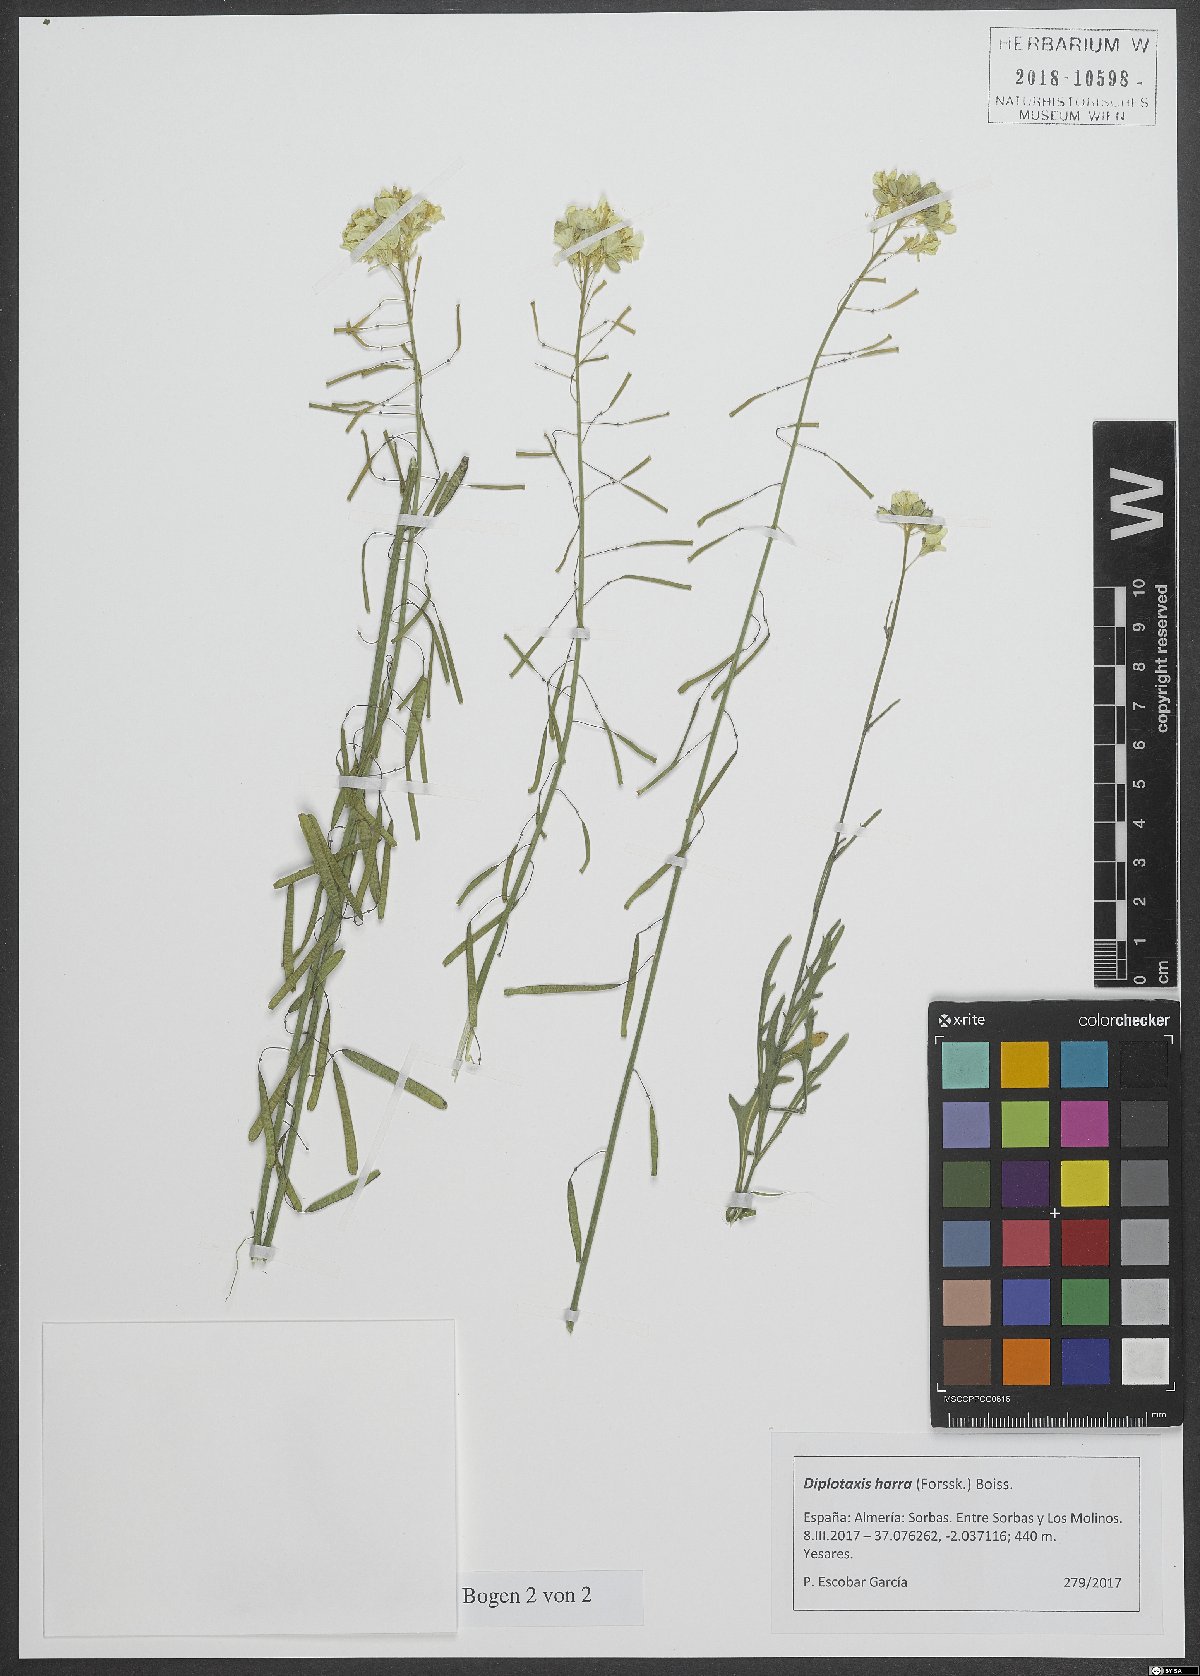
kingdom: Plantae
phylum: Tracheophyta
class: Magnoliopsida
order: Brassicales
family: Brassicaceae
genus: Diplotaxis
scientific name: Diplotaxis harra
